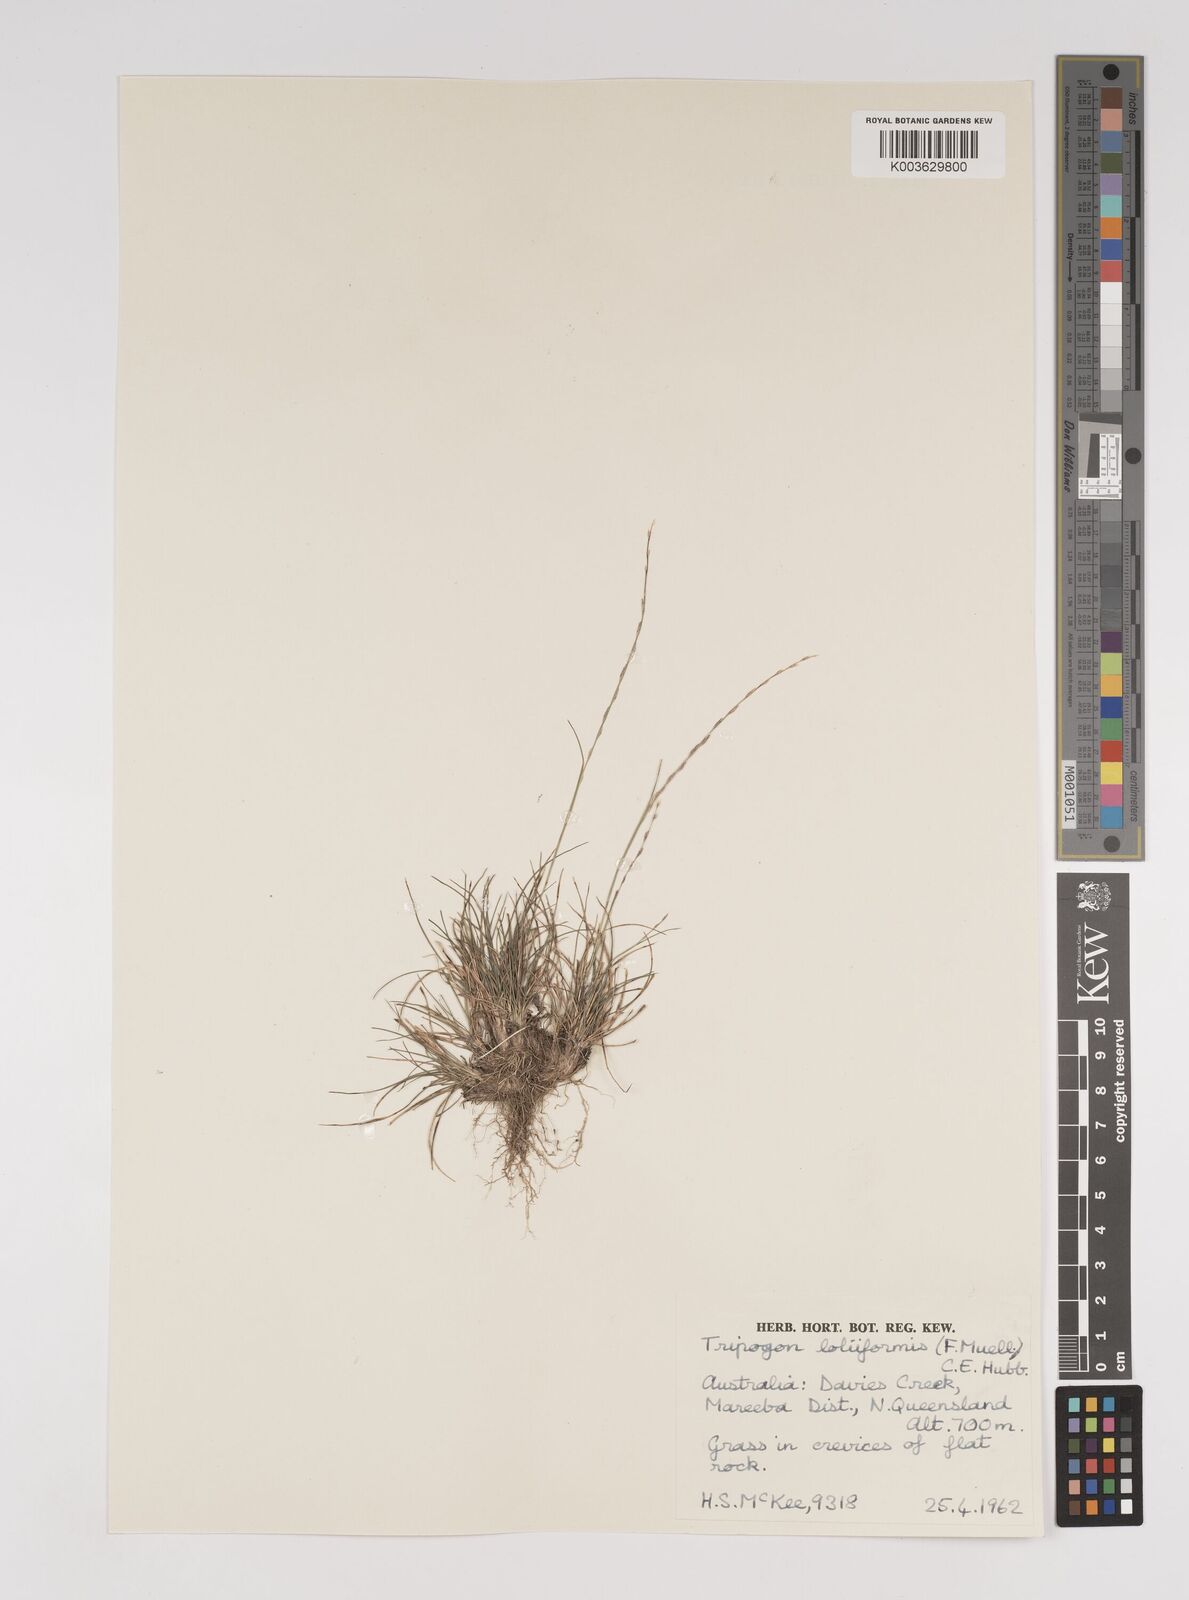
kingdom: Plantae
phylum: Tracheophyta
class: Liliopsida
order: Poales
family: Poaceae
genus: Tripogonella
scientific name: Tripogonella loliiformis
